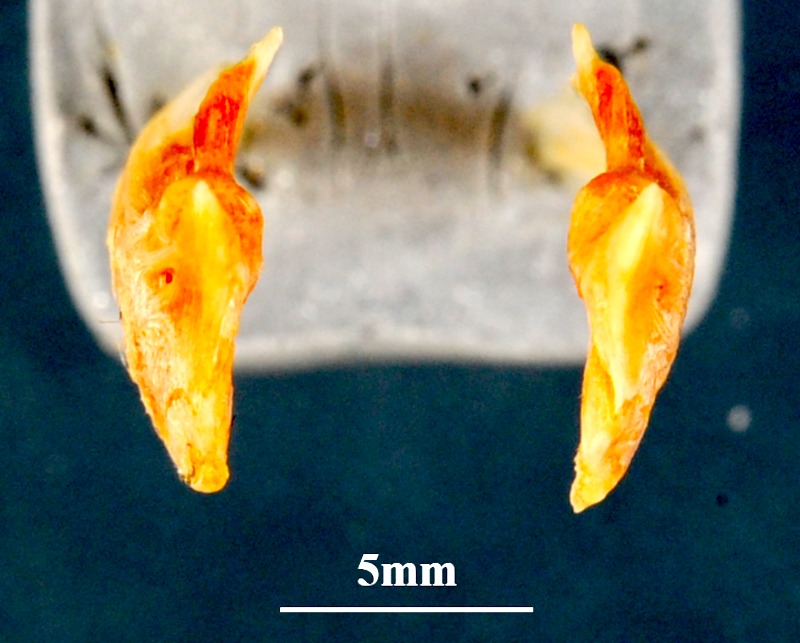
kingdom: Animalia
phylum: Chordata
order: Perciformes
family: Coryphaenidae
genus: Coryphaena
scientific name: Coryphaena equiselis
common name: Pompano dolphinfish
